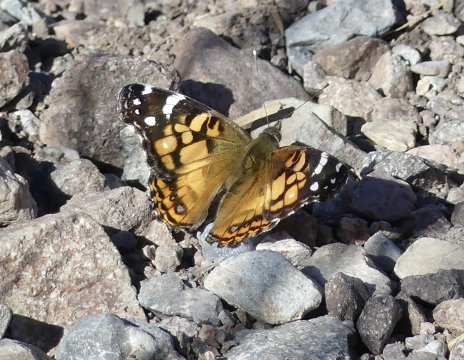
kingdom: Animalia
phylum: Arthropoda
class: Insecta
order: Lepidoptera
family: Nymphalidae
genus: Vanessa
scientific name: Vanessa virginiensis
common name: American Lady
